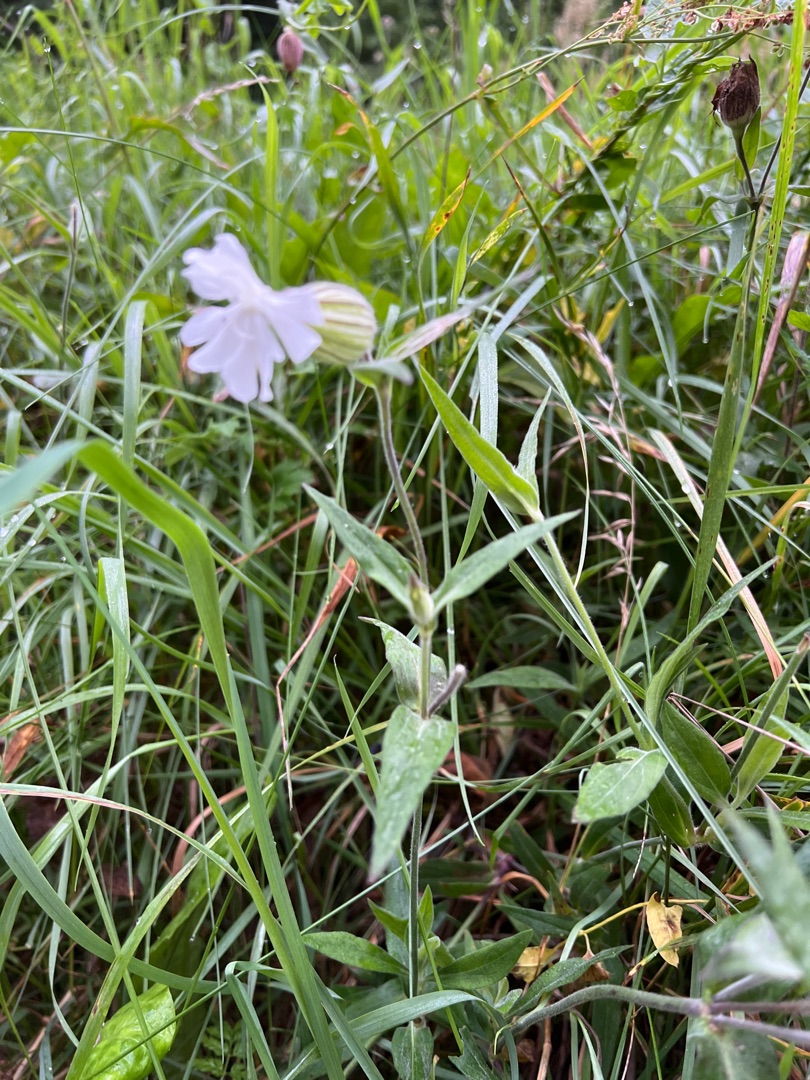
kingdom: Plantae
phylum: Tracheophyta
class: Magnoliopsida
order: Caryophyllales
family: Caryophyllaceae
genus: Silene
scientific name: Silene latifolia
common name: Aftenpragtstjerne
